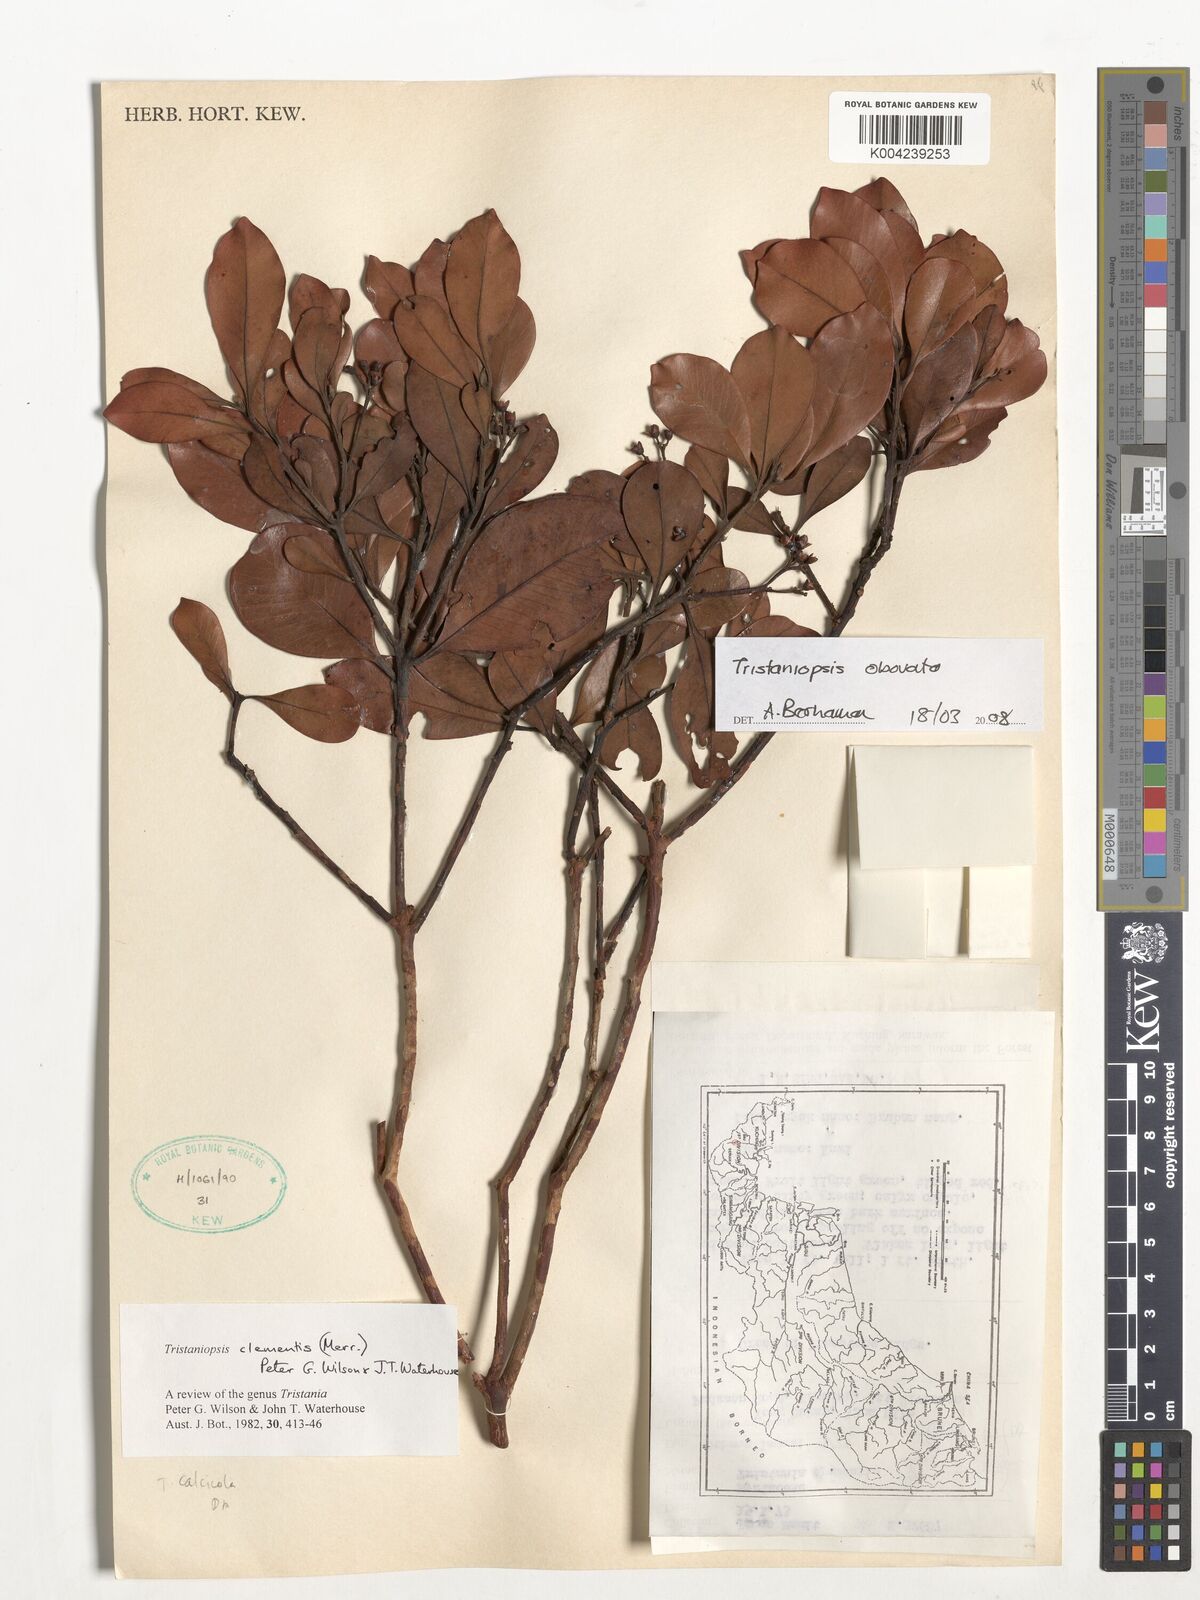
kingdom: Plantae
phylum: Tracheophyta
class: Magnoliopsida
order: Myrtales
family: Myrtaceae
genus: Tristaniopsis
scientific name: Tristaniopsis obovata
